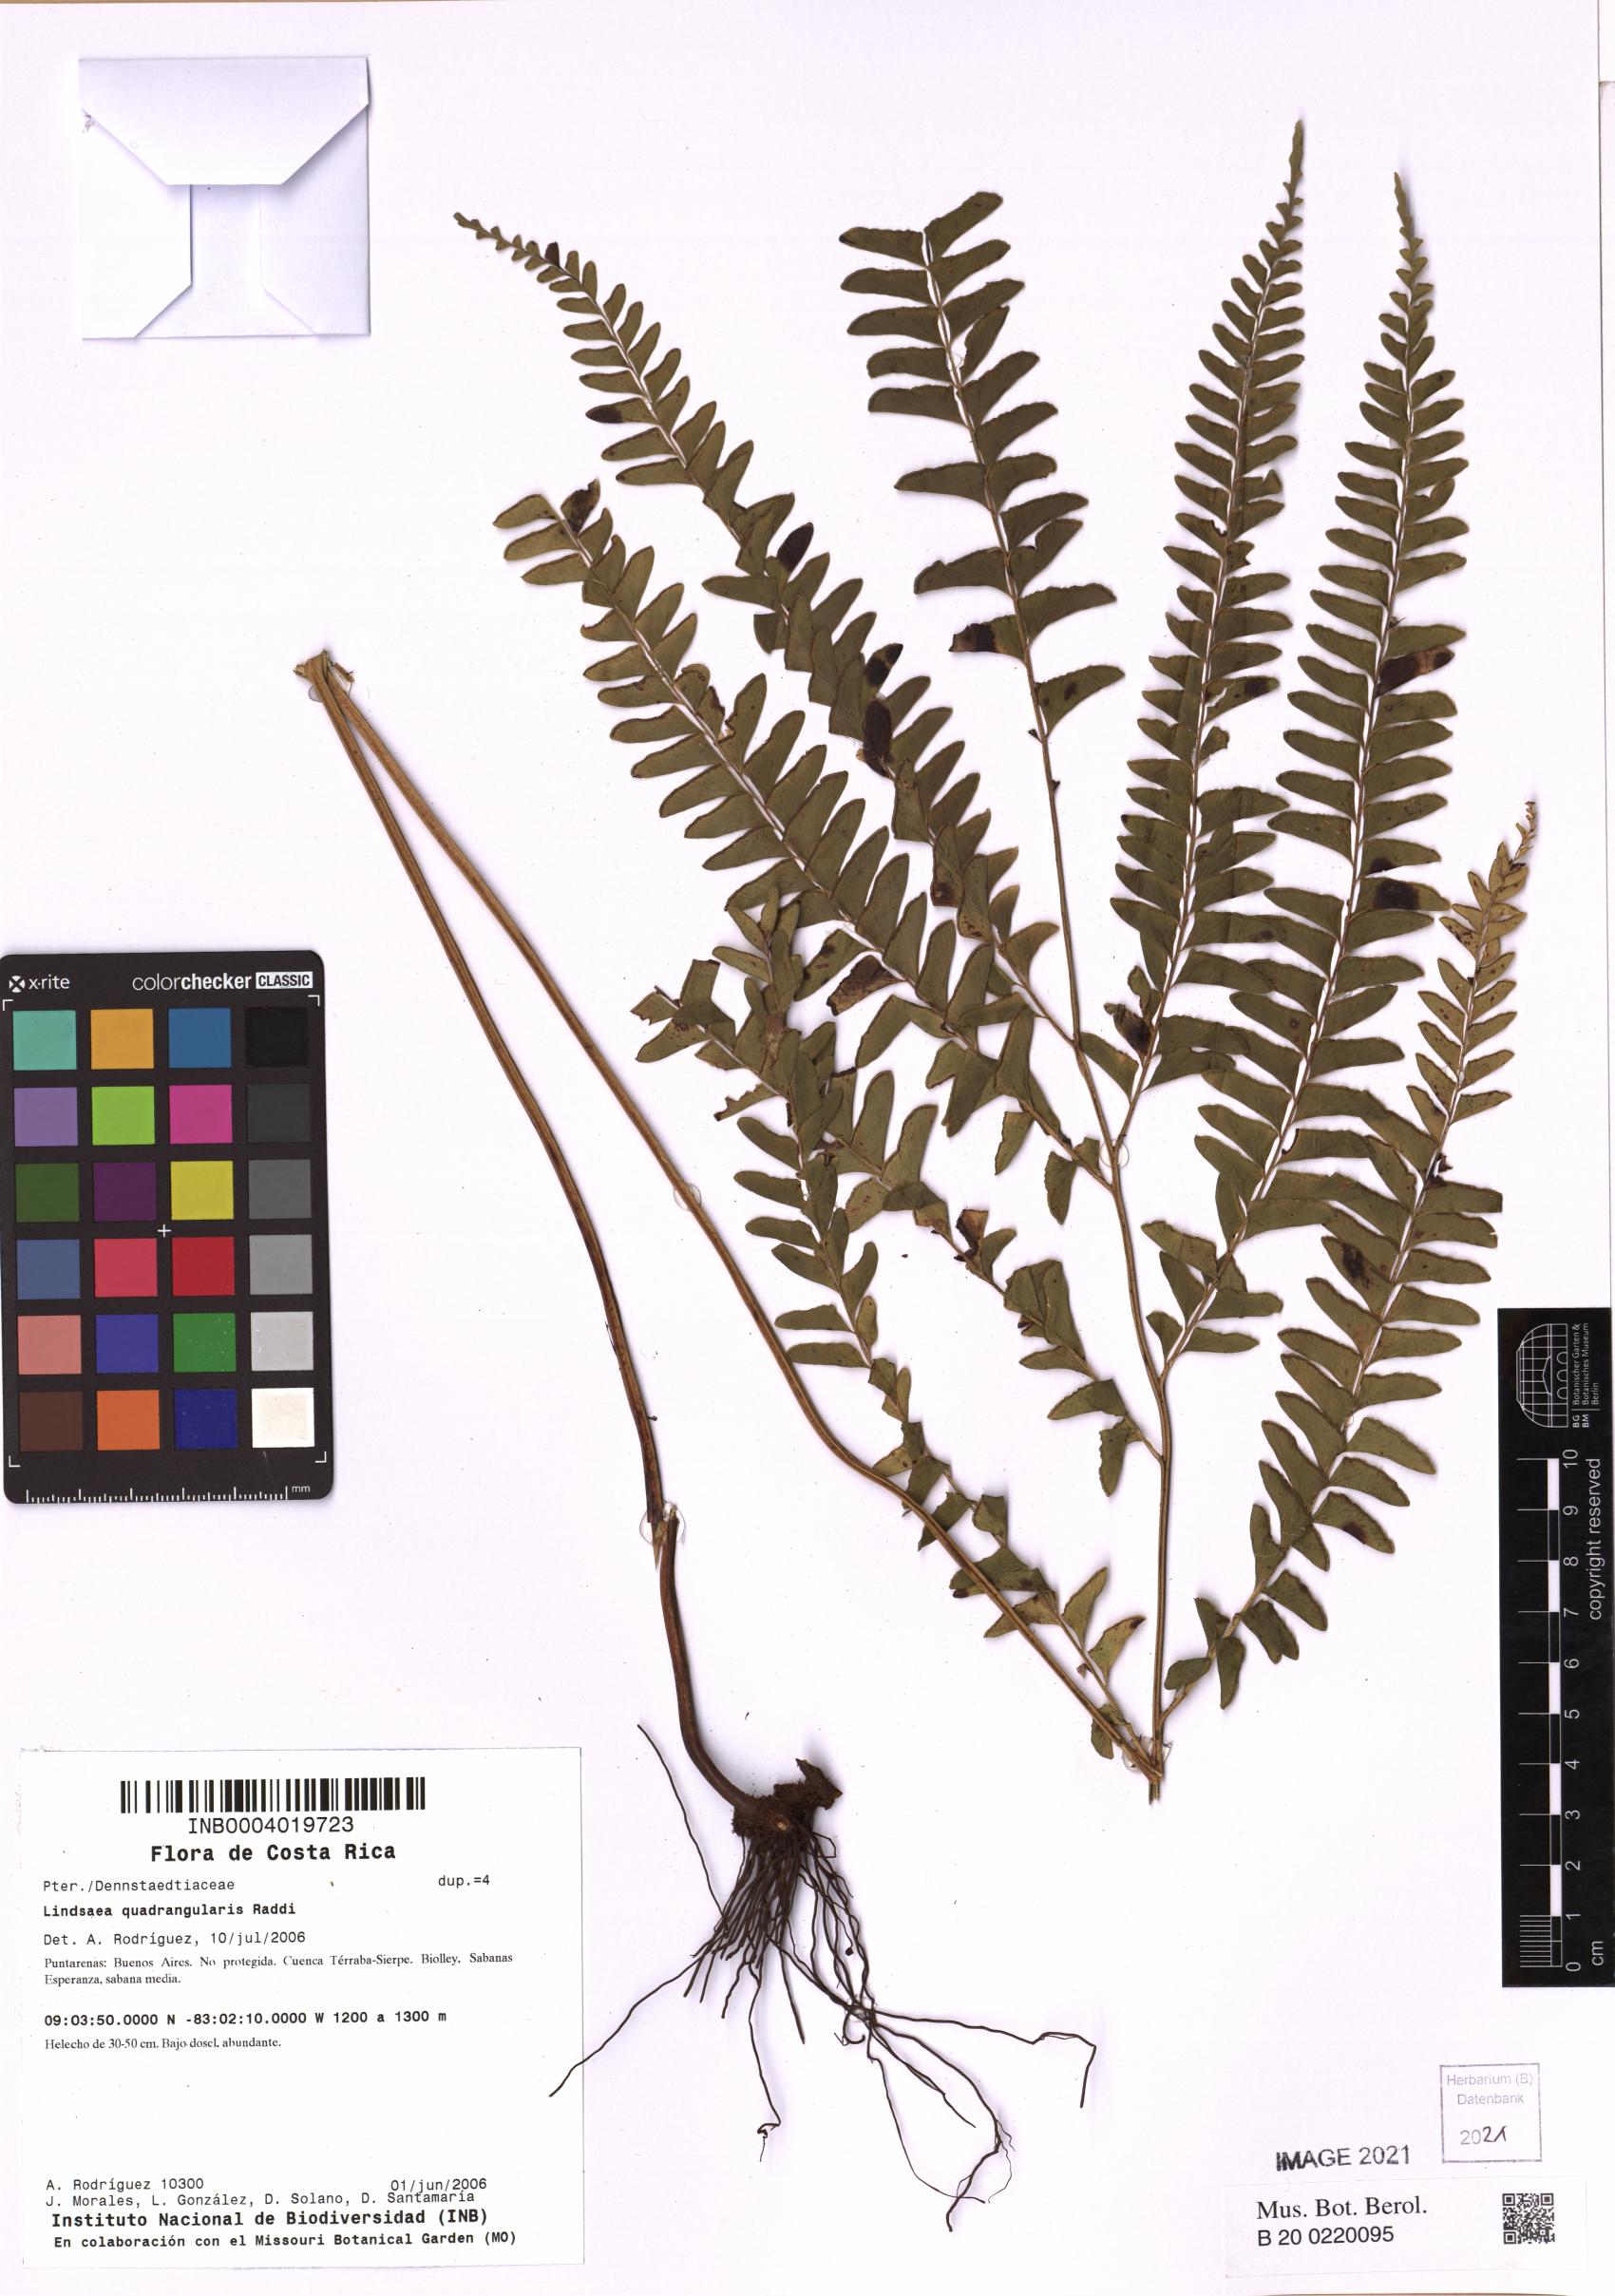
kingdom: Plantae
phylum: Tracheophyta
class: Polypodiopsida
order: Polypodiales
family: Lindsaeaceae
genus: Lindsaea
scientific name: Lindsaea quadrangularis
